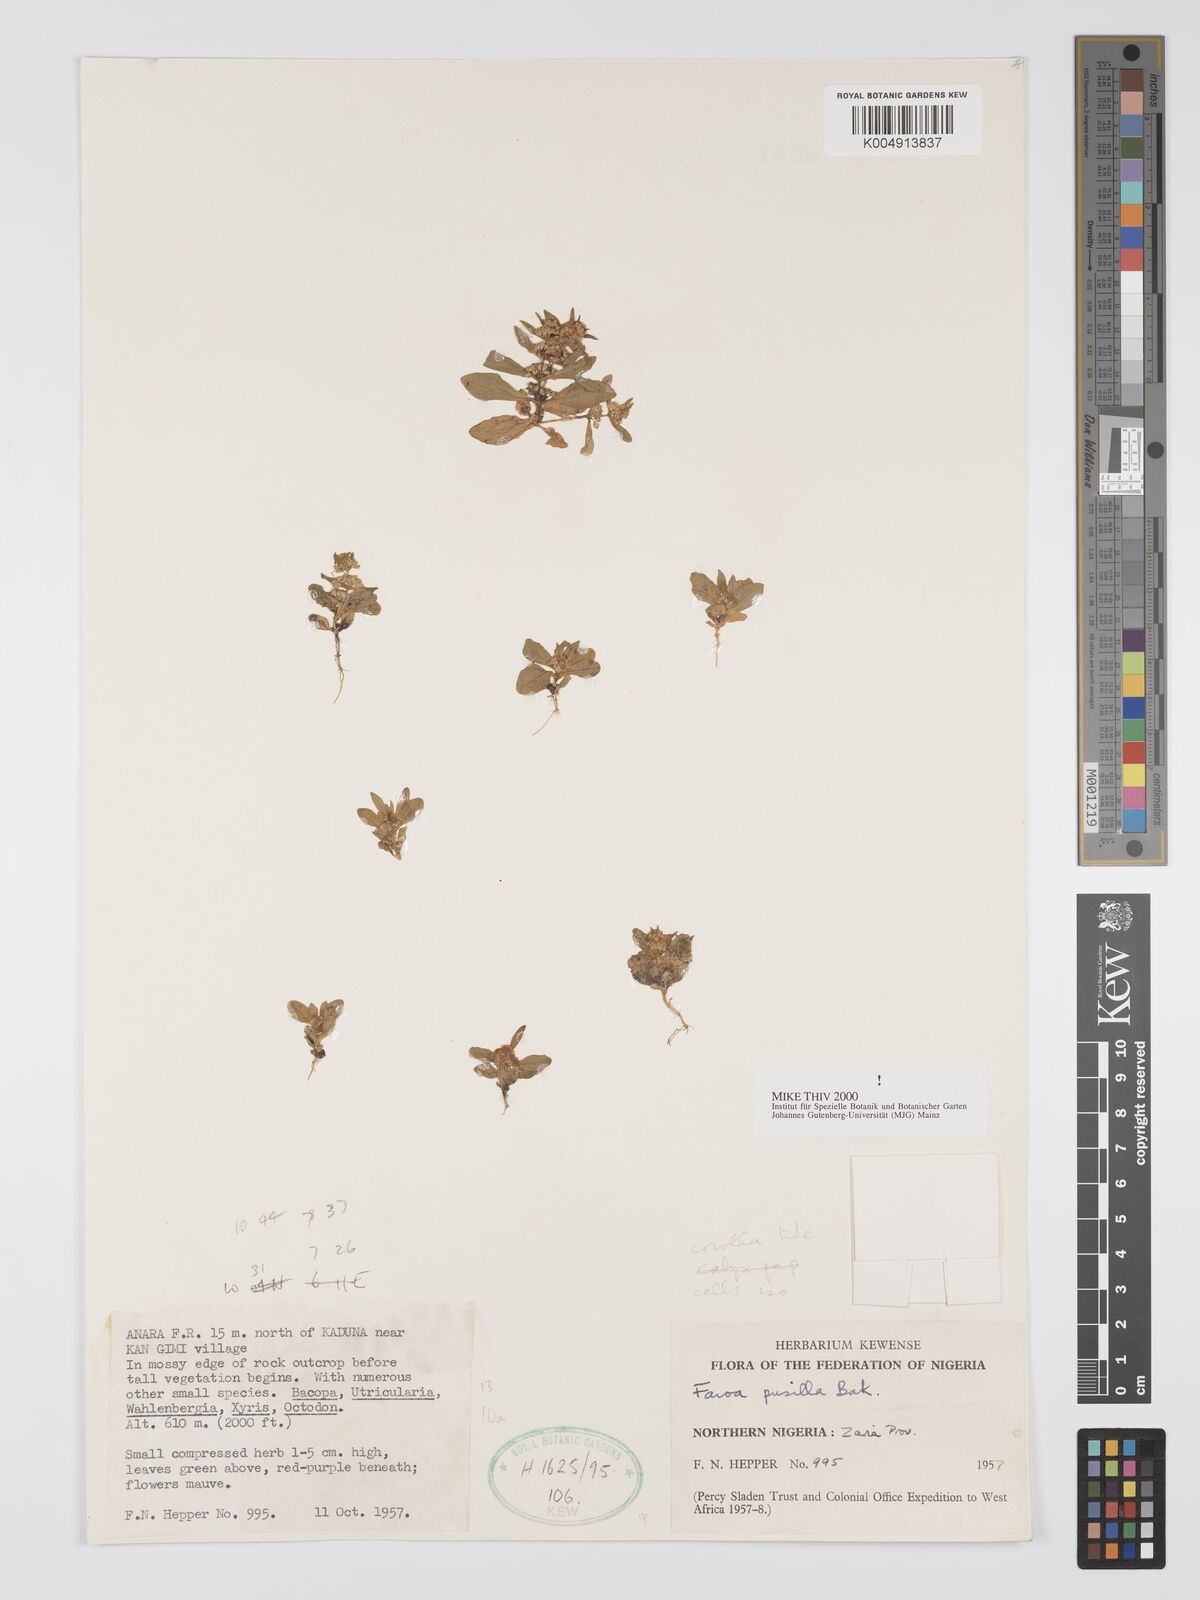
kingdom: Plantae
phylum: Tracheophyta
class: Magnoliopsida
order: Gentianales
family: Gentianaceae
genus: Faroa
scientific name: Faroa pusilla
